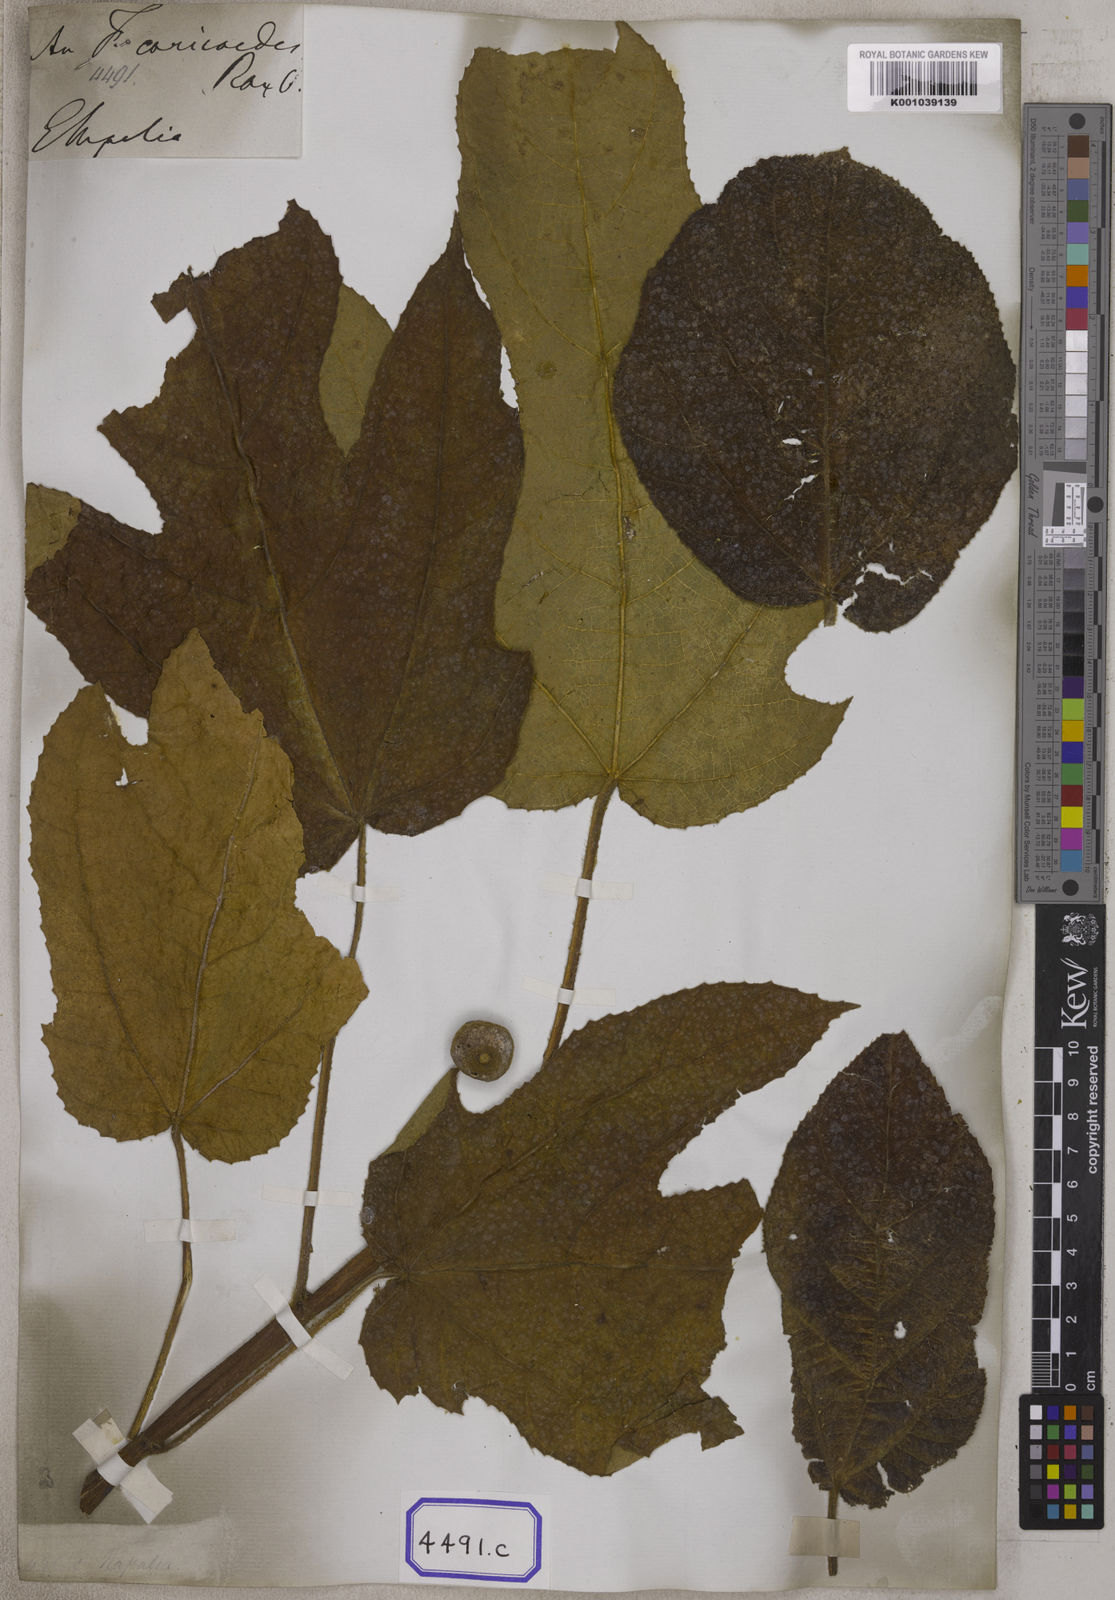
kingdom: Plantae
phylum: Tracheophyta
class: Magnoliopsida
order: Rosales
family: Moraceae
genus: Ficus
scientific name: Ficus
